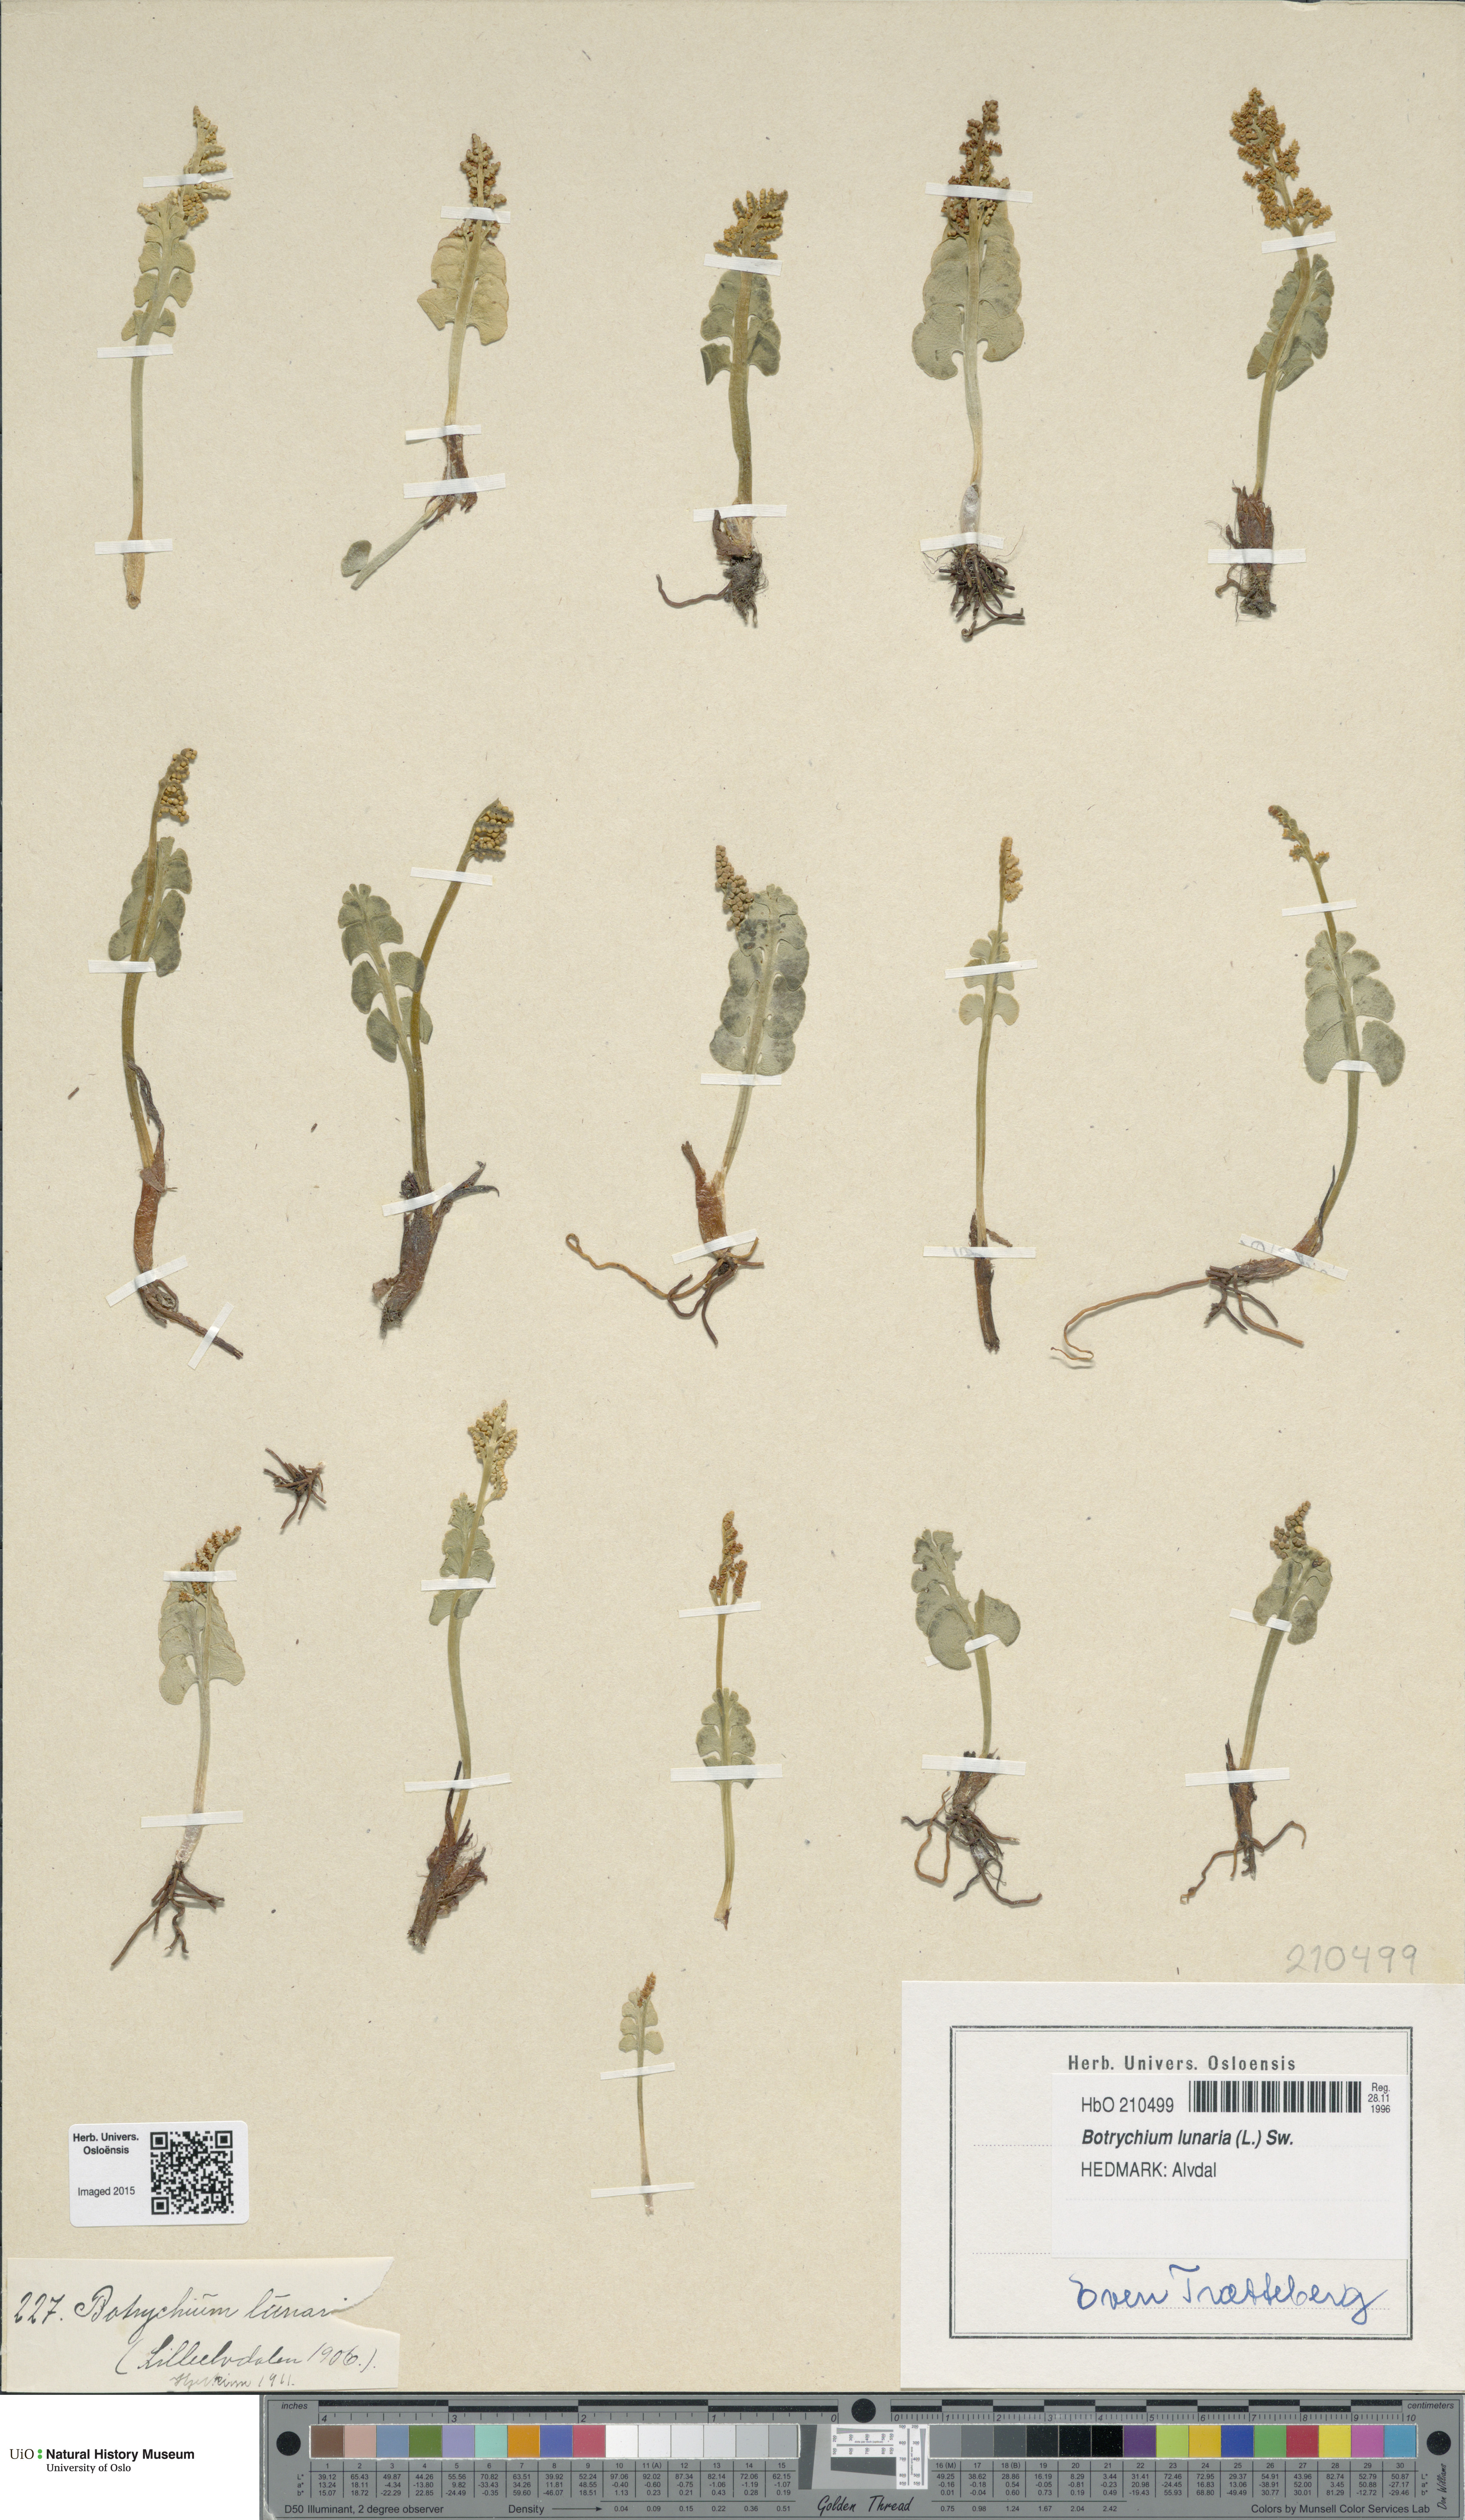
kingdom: Plantae
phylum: Tracheophyta
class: Polypodiopsida
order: Ophioglossales
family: Ophioglossaceae
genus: Botrychium
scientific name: Botrychium lunaria
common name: Moonwort
